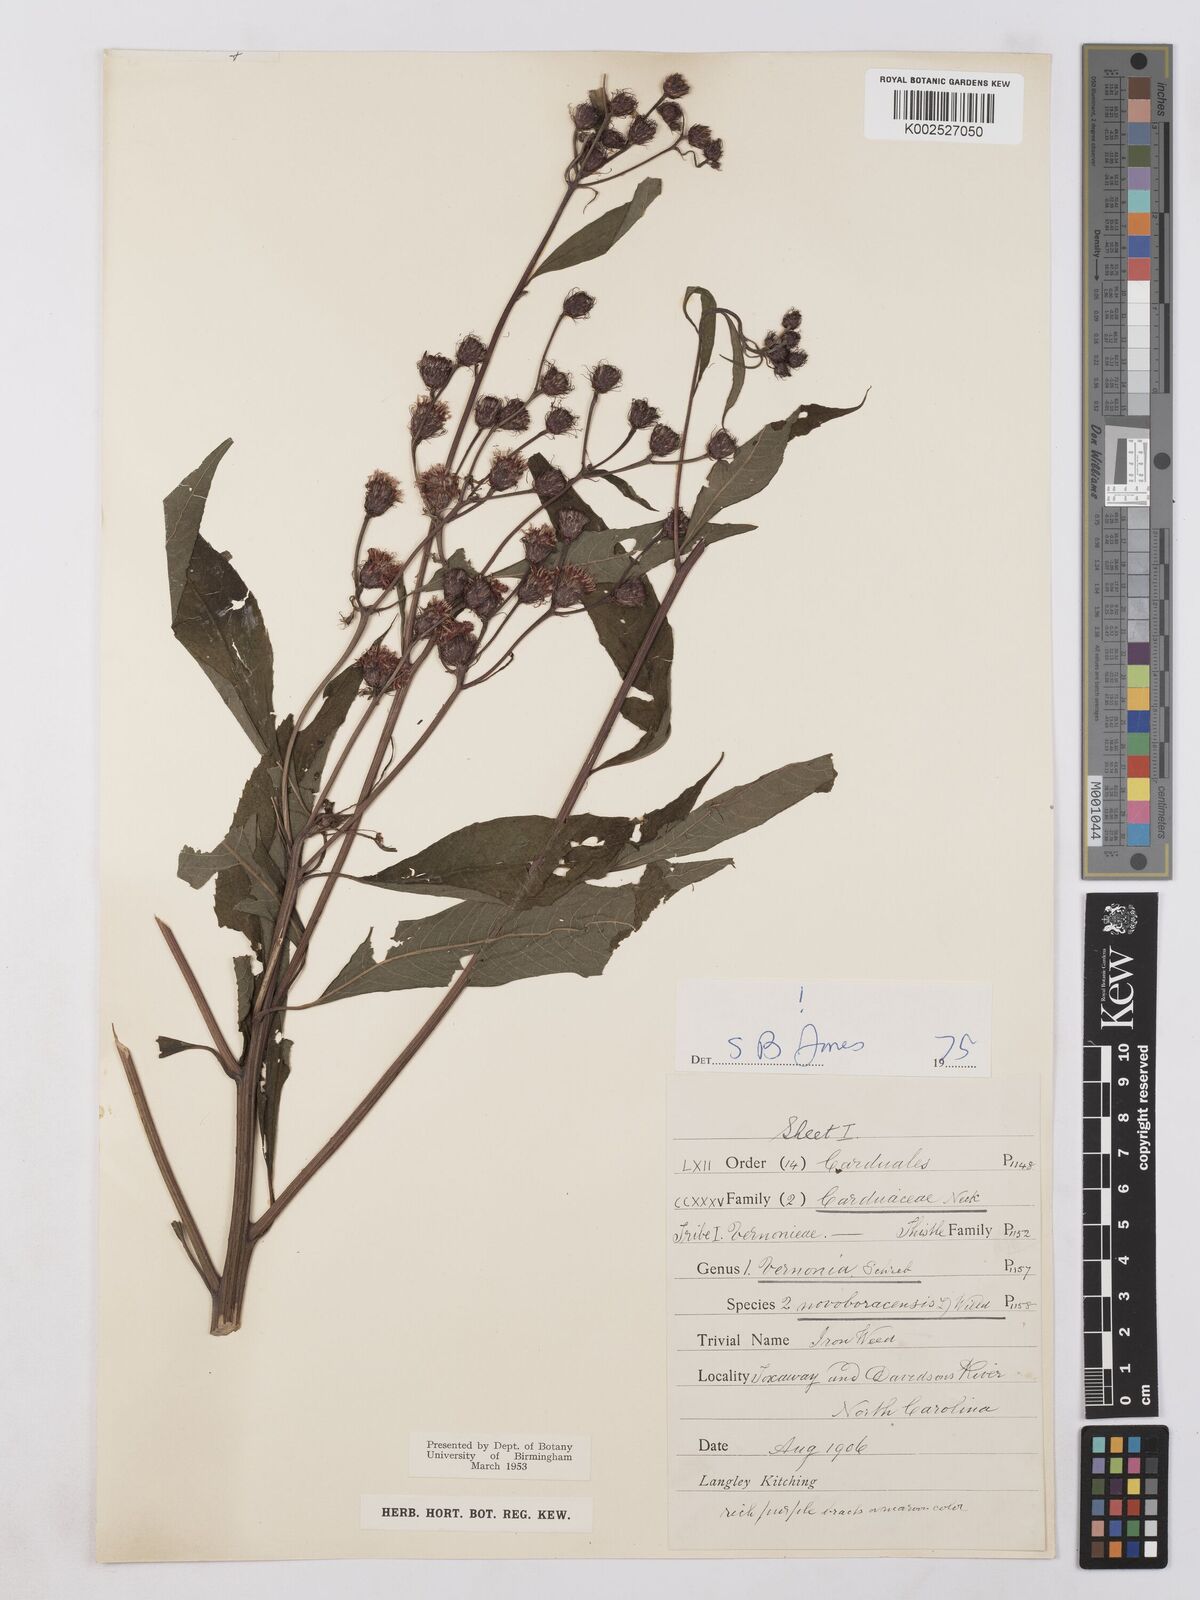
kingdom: Plantae
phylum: Tracheophyta
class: Magnoliopsida
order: Asterales
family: Asteraceae
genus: Vernonia
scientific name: Vernonia noveboracensis
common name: New york ironweed
